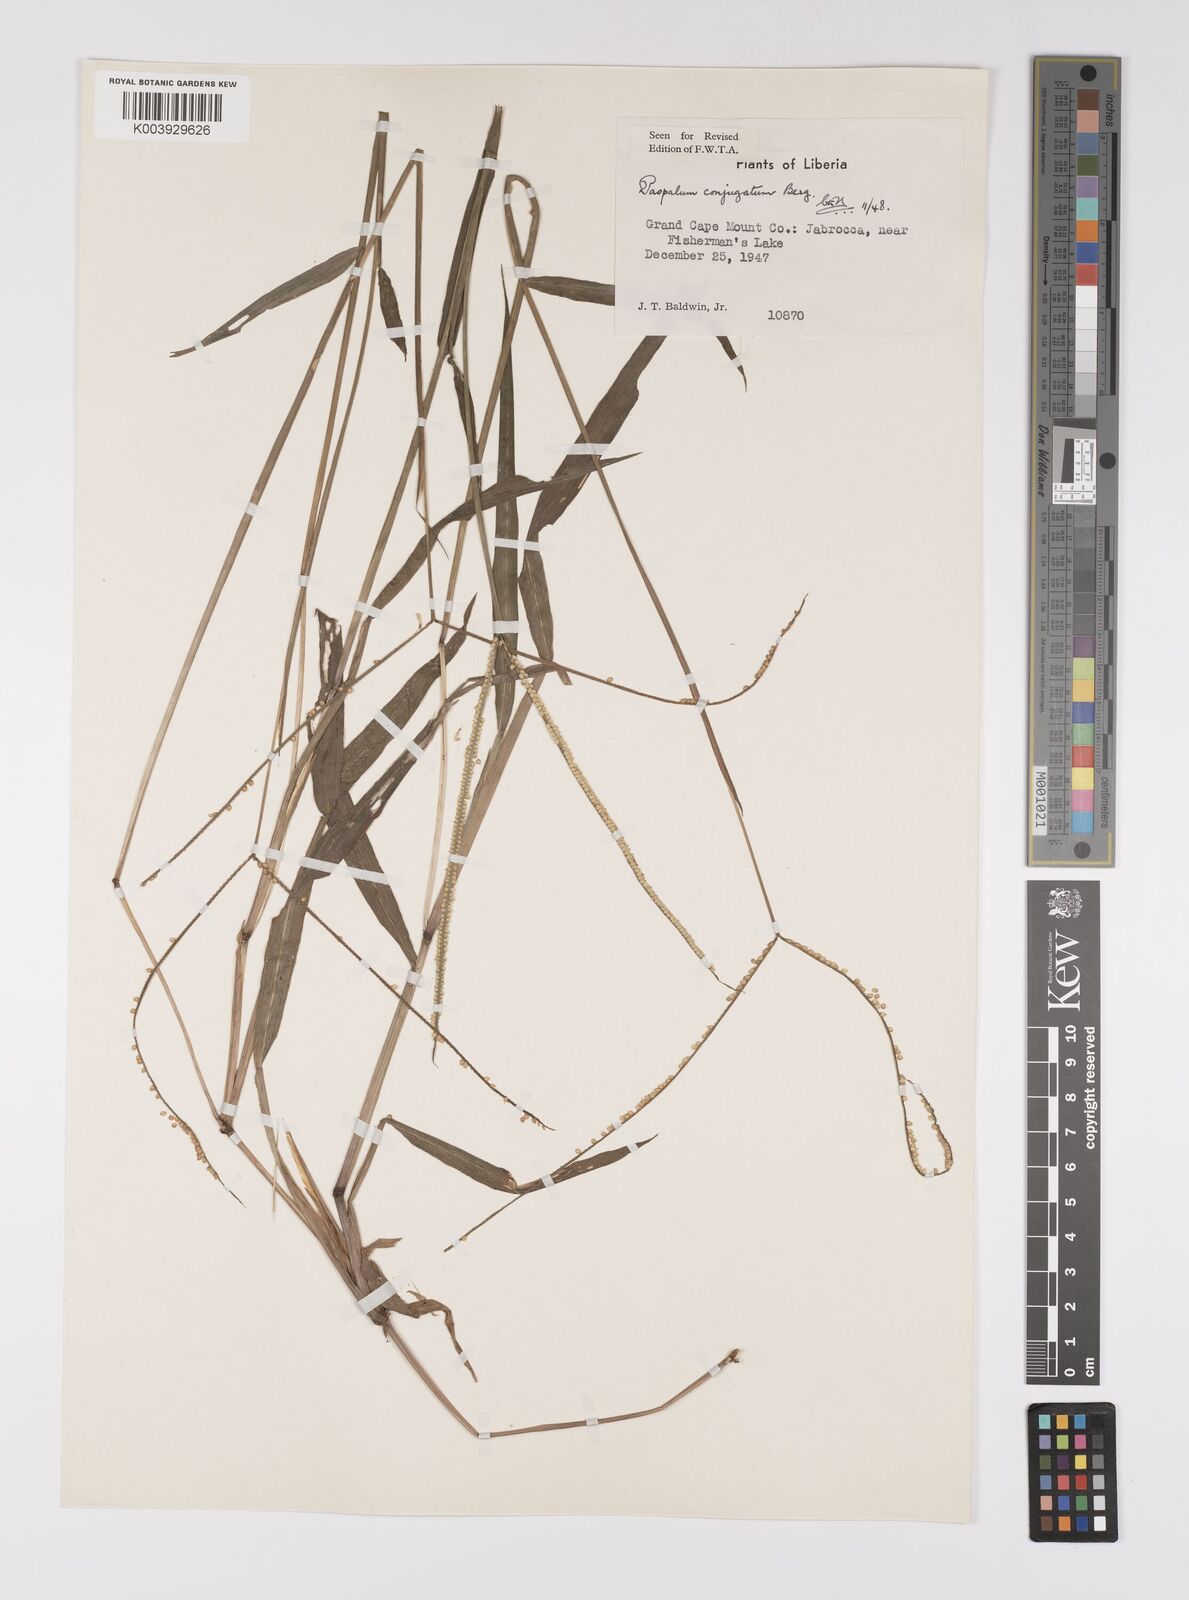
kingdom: Plantae
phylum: Tracheophyta
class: Liliopsida
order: Poales
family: Poaceae
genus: Paspalum
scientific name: Paspalum conjugatum
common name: Hilograss
